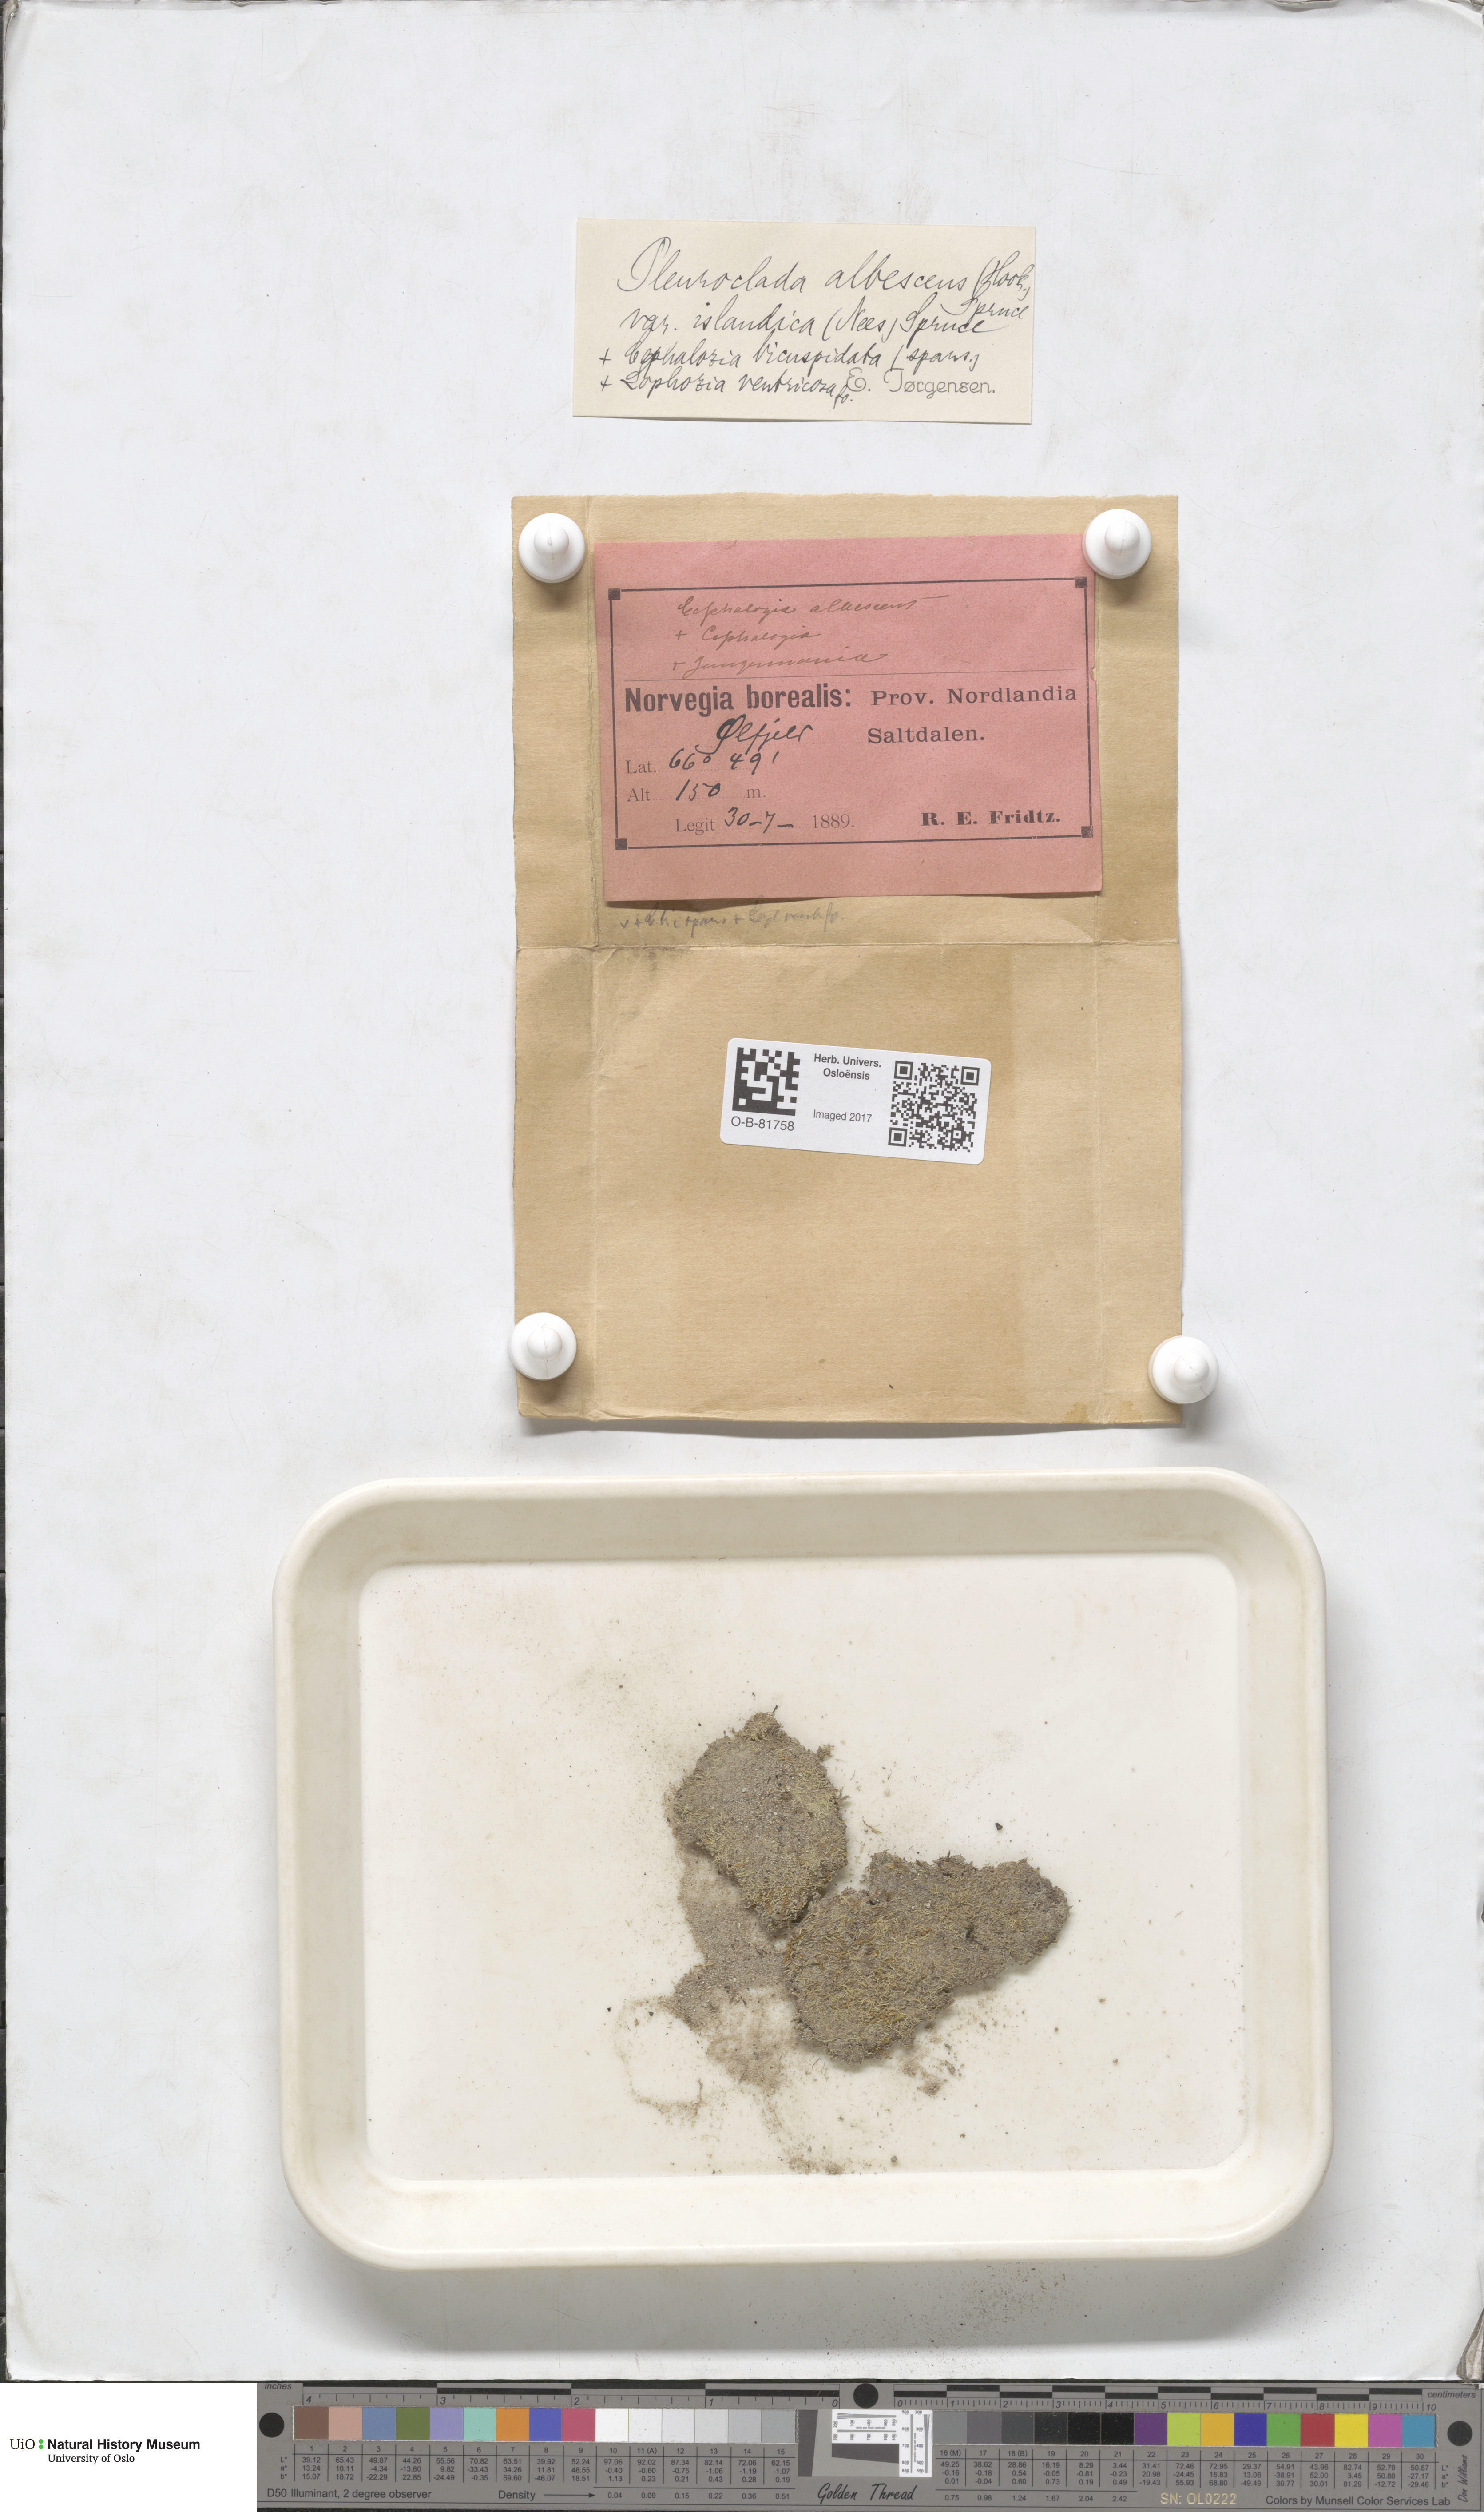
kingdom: Plantae
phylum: Marchantiophyta
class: Jungermanniopsida
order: Jungermanniales
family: Cephaloziaceae
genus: Fuscocephaloziopsis
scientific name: Fuscocephaloziopsis albescens
